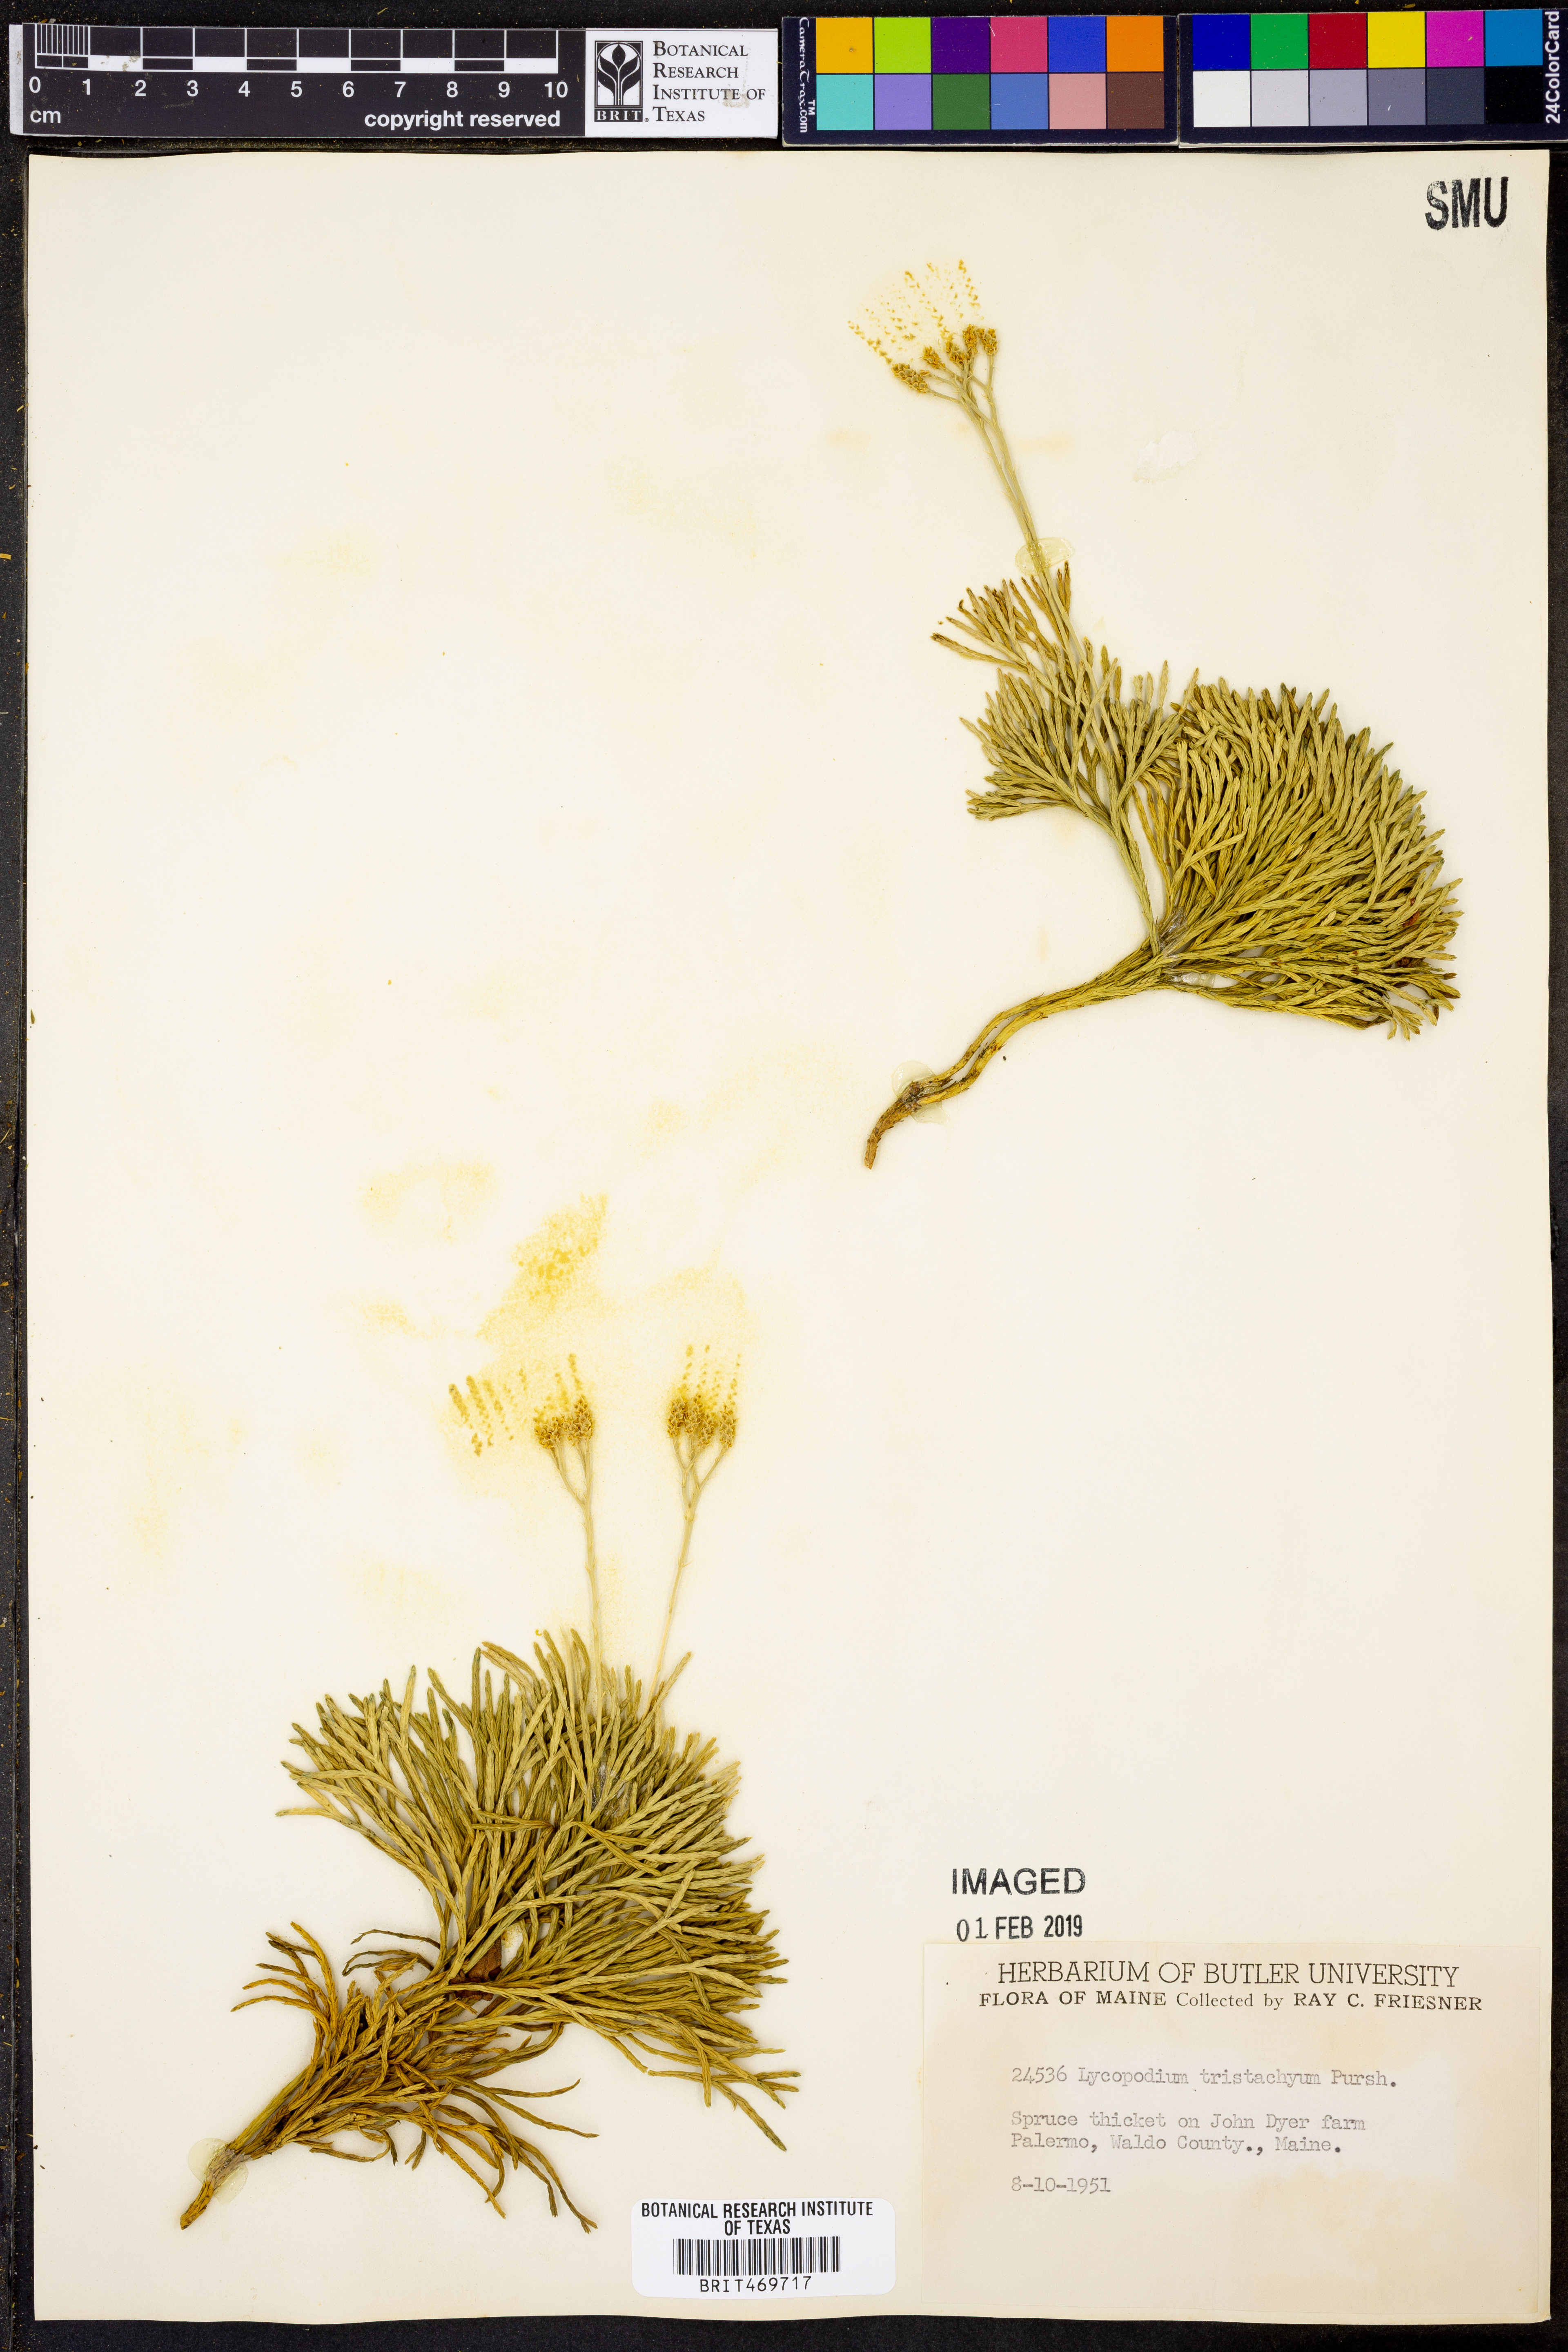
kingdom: Plantae
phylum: Tracheophyta
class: Lycopodiopsida
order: Lycopodiales
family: Lycopodiaceae
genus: Diphasiastrum
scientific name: Diphasiastrum tristachyum
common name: Blue ground-cedar
